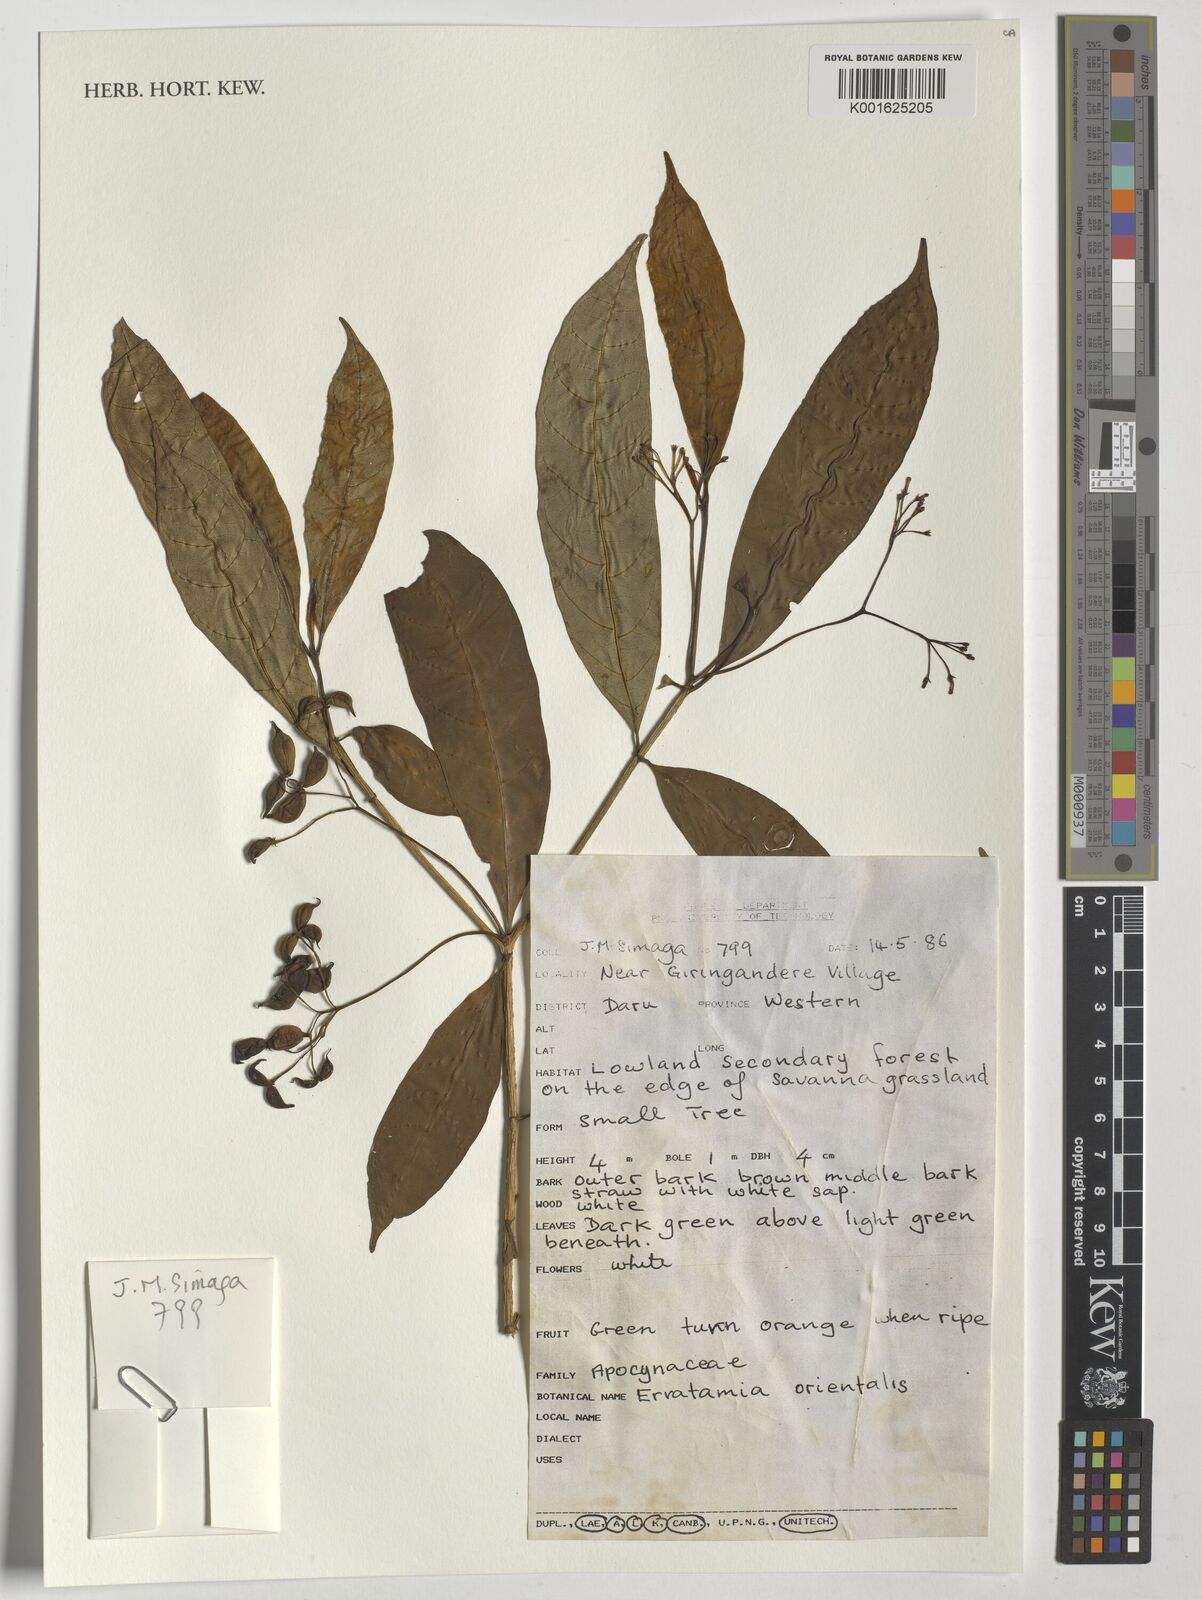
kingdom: Plantae
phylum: Tracheophyta
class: Magnoliopsida
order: Gentianales
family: Apocynaceae
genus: Tabernaemontana
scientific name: Tabernaemontana pandacaqui
